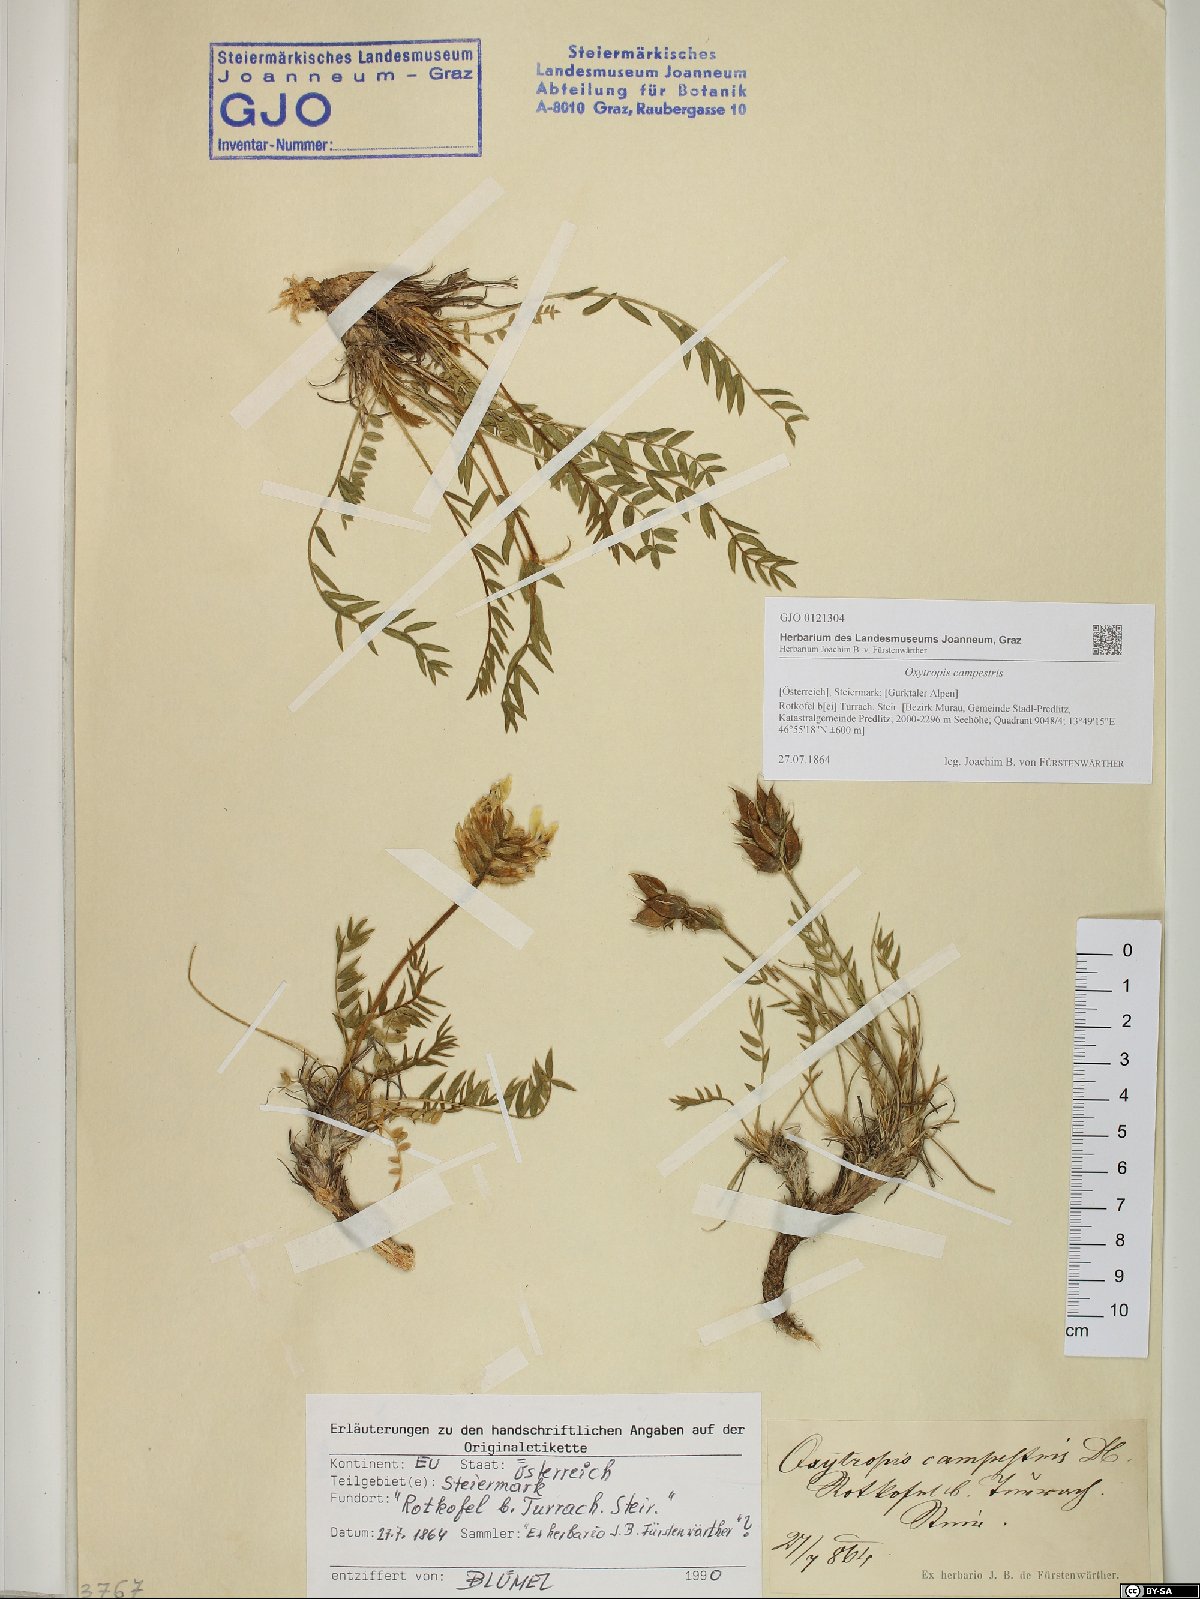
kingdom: Plantae
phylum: Tracheophyta
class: Magnoliopsida
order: Fabales
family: Fabaceae
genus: Oxytropis
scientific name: Oxytropis campestris
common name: Field locoweed
